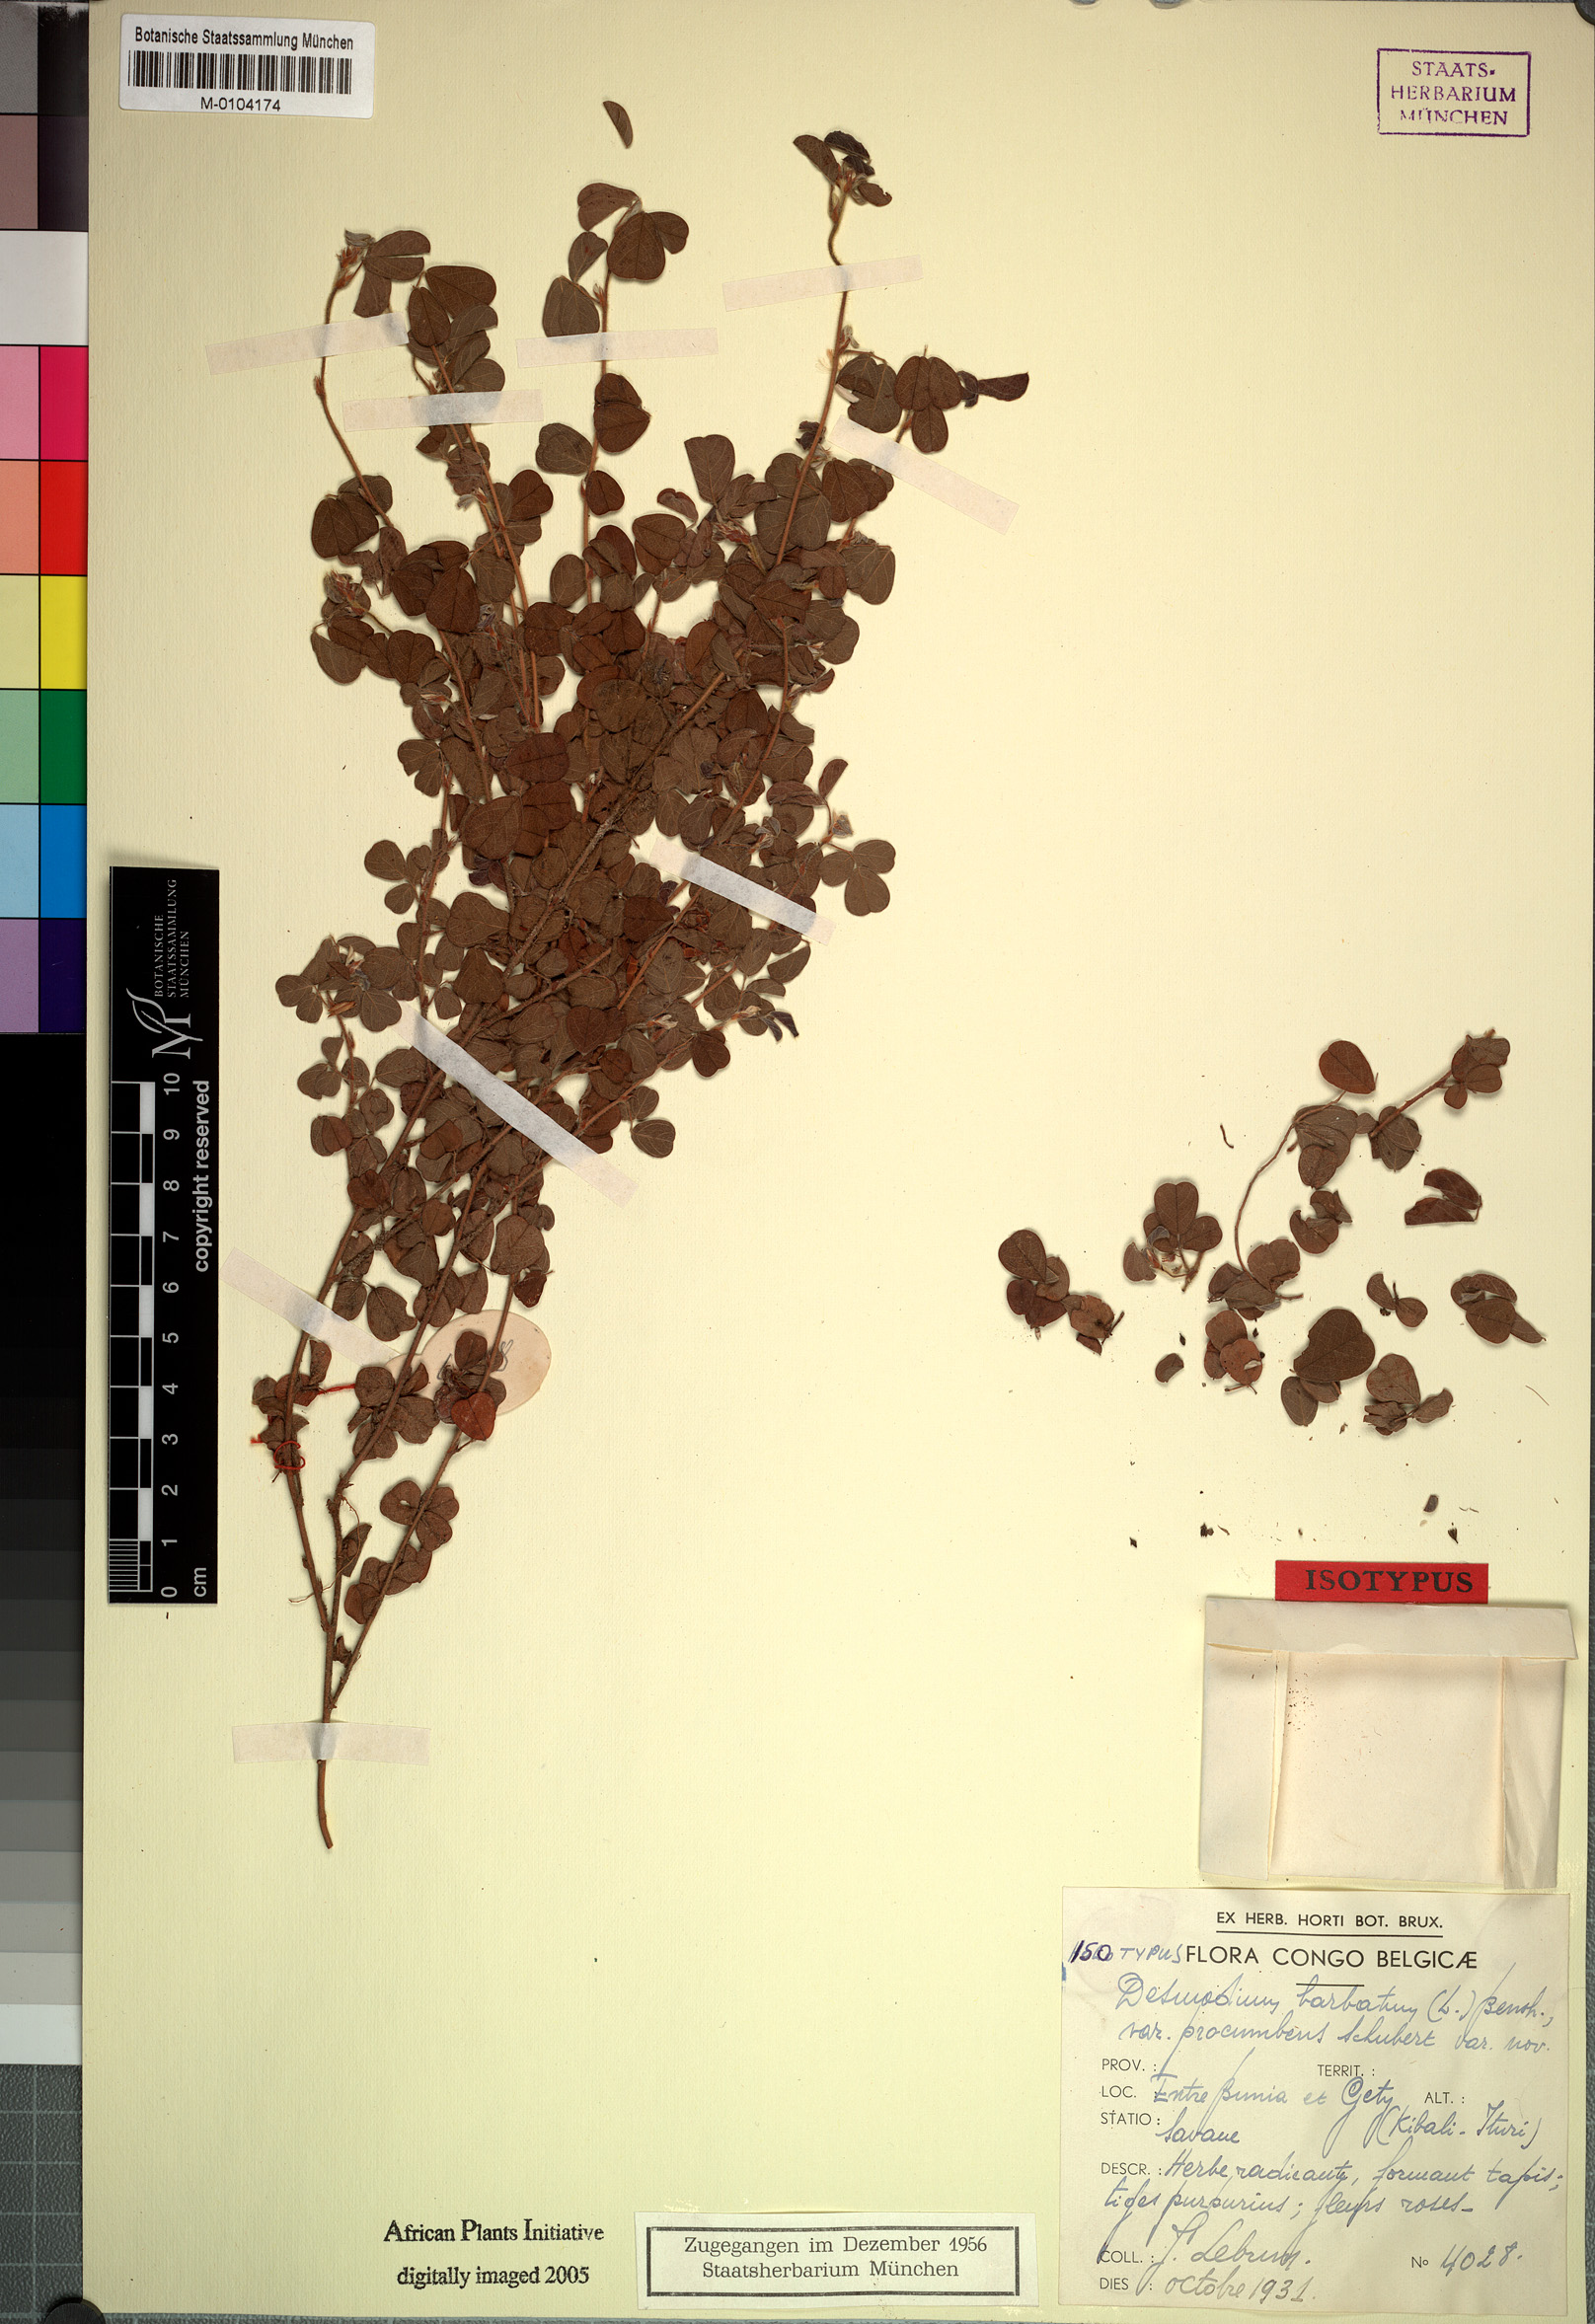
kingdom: Plantae
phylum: Tracheophyta
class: Magnoliopsida
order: Fabales
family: Fabaceae
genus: Grona
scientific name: Grona barbata
